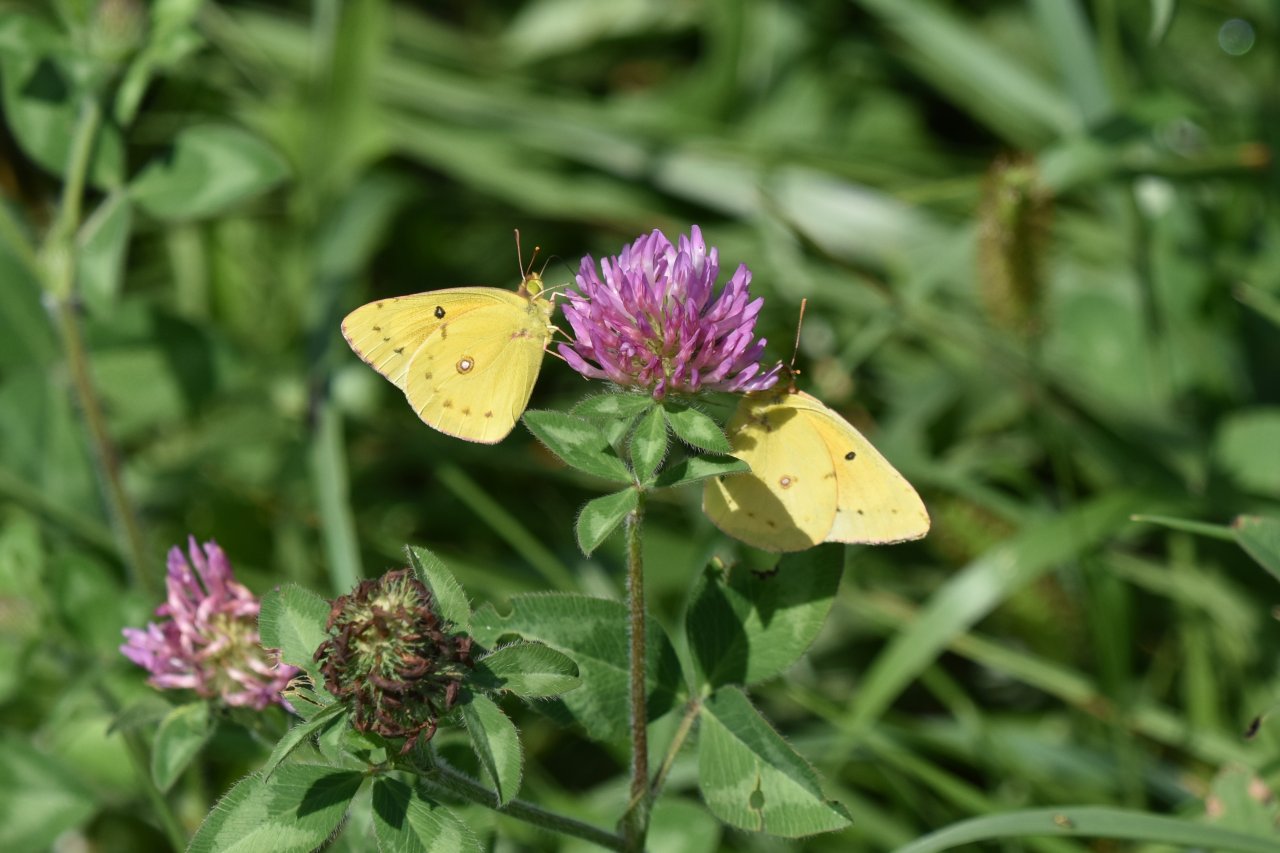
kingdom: Animalia
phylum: Arthropoda
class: Insecta
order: Lepidoptera
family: Pieridae
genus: Colias
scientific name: Colias eurytheme
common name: Orange Sulphur
